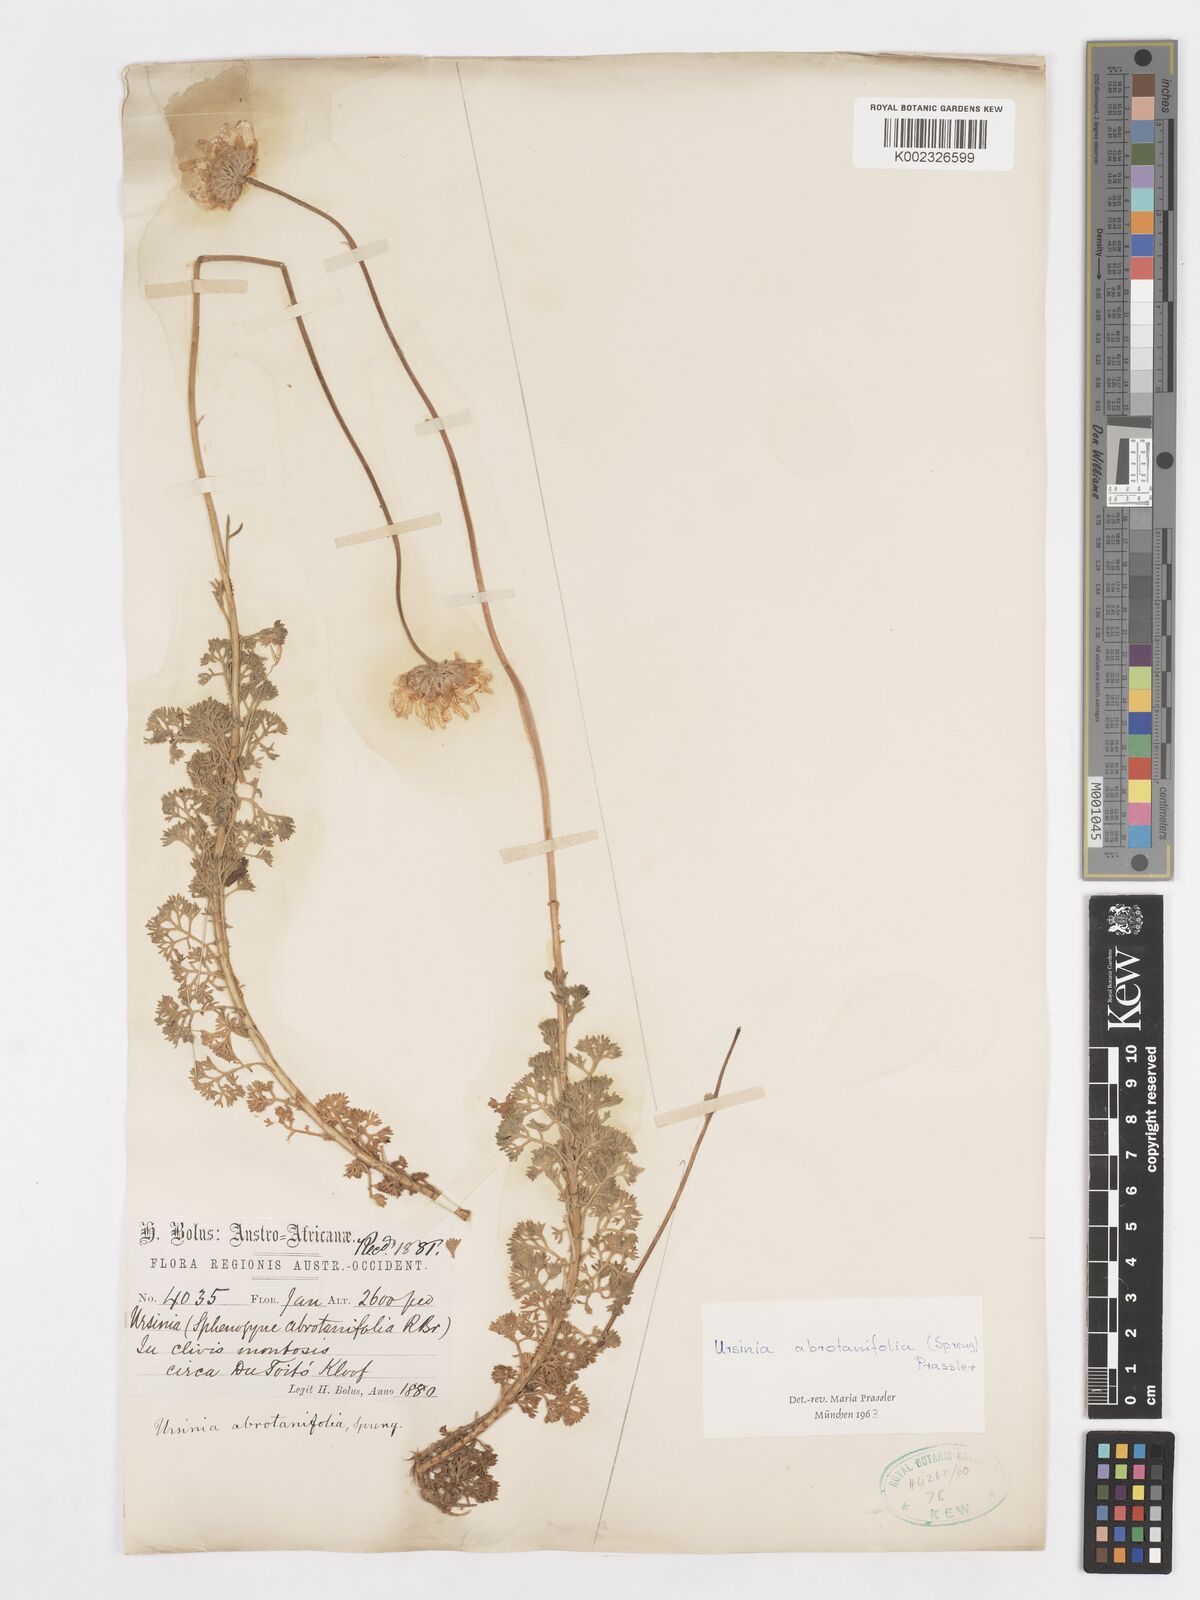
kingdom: Plantae
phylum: Tracheophyta
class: Magnoliopsida
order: Asterales
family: Asteraceae
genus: Ursinia
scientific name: Ursinia abrotanifolia
